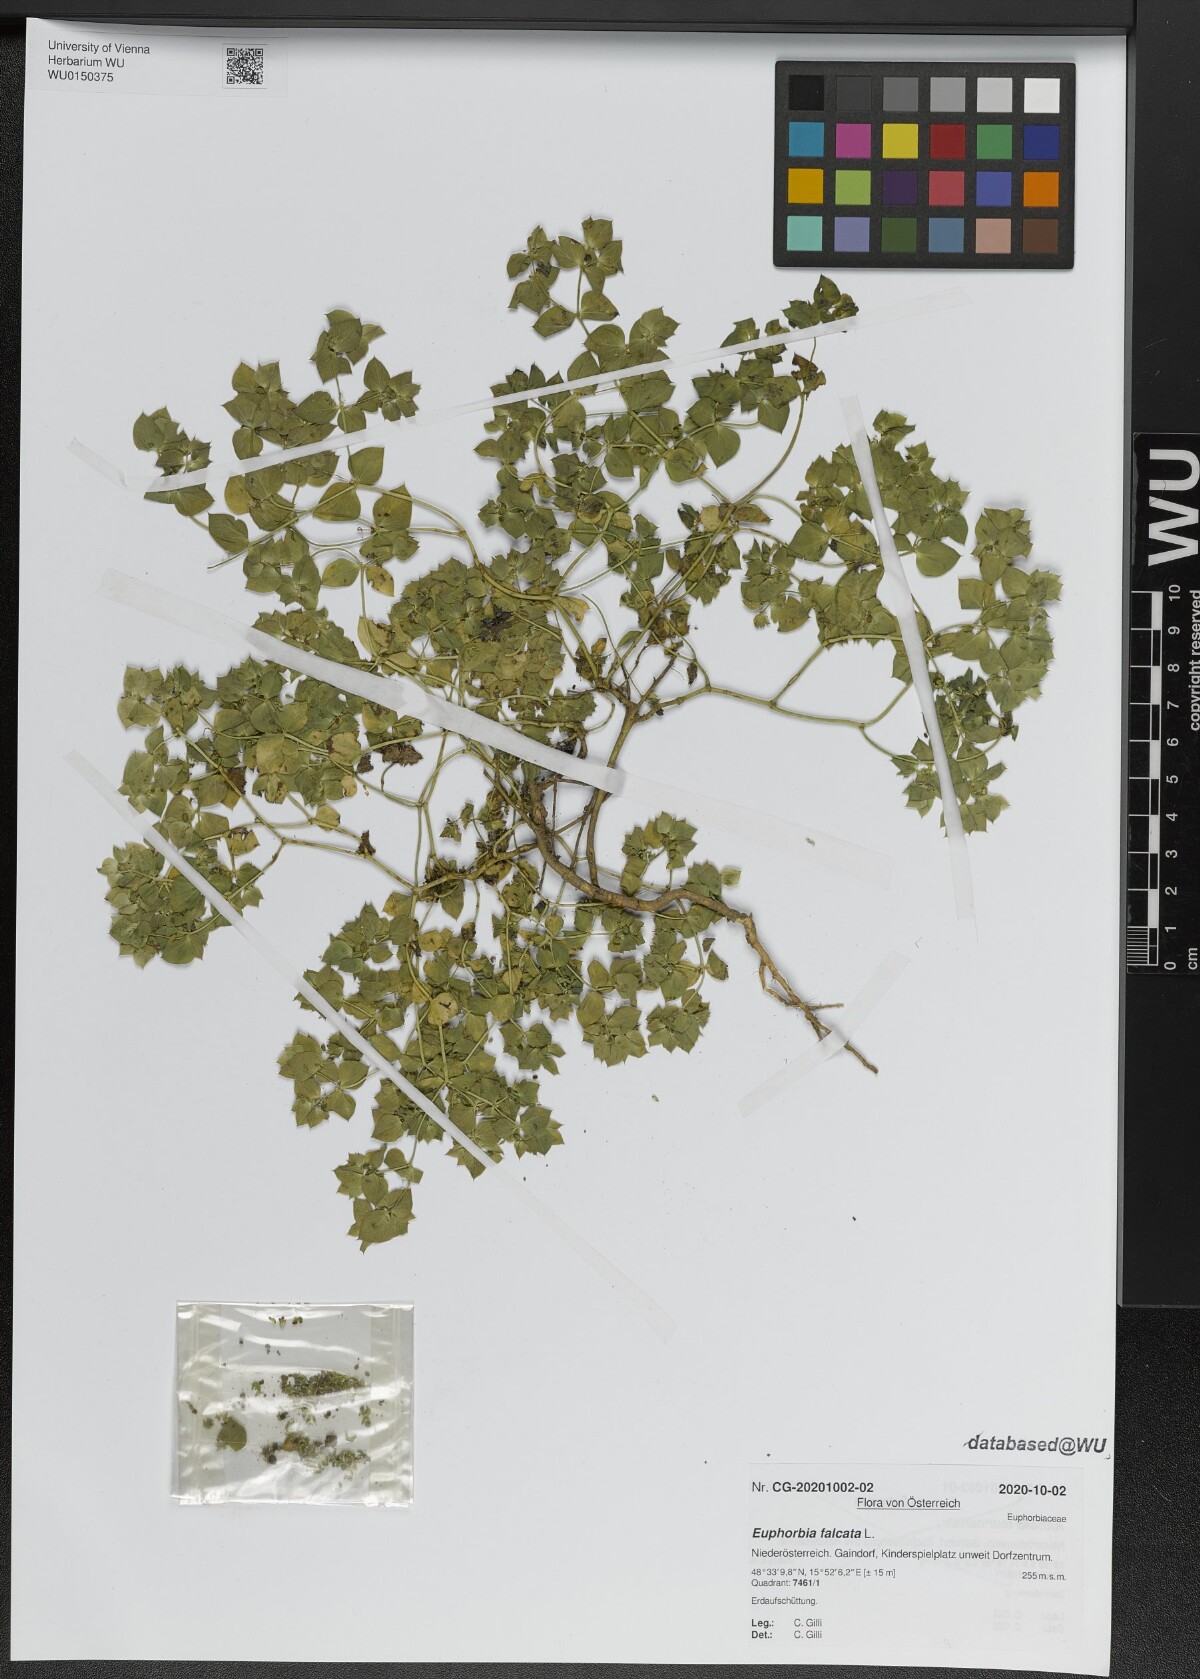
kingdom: Plantae
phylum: Tracheophyta
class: Magnoliopsida
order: Malpighiales
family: Euphorbiaceae
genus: Euphorbia
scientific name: Euphorbia falcata
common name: Sickle spurge
